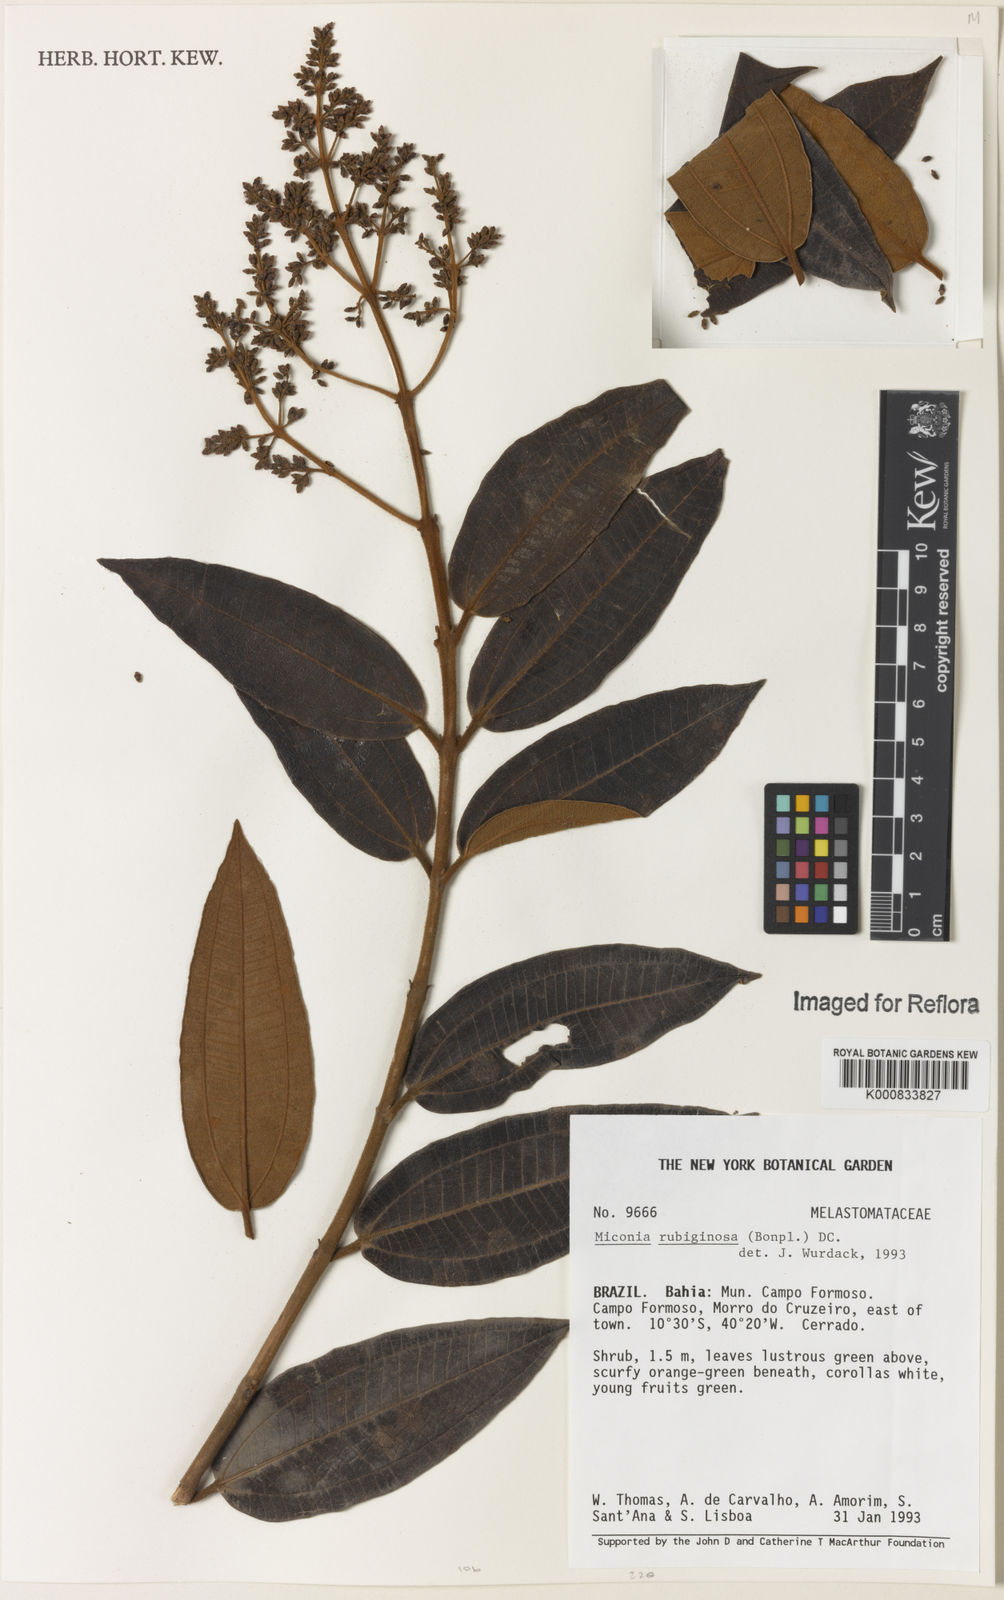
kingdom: Plantae
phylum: Tracheophyta
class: Magnoliopsida
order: Myrtales
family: Melastomataceae
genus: Miconia
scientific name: Miconia rubiginosa
